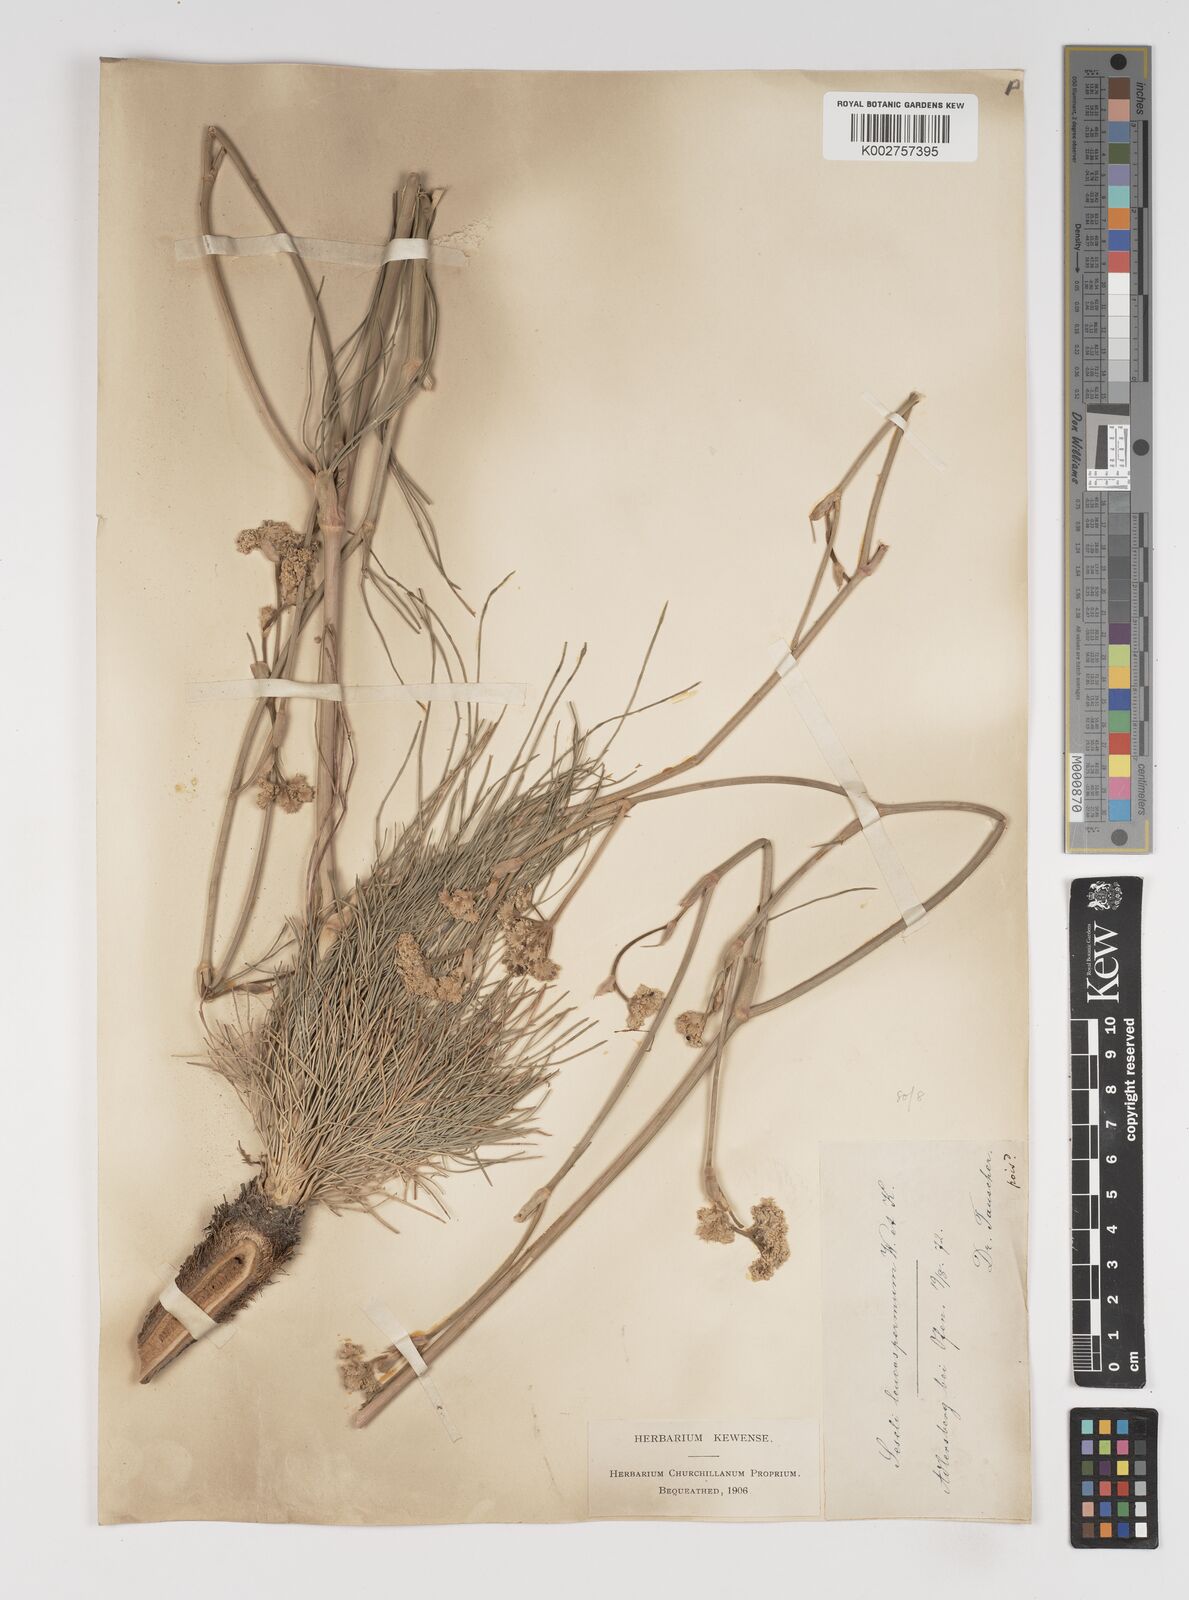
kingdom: Plantae
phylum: Tracheophyta
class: Magnoliopsida
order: Apiales
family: Apiaceae
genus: Seseli
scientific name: Seseli leucospermum
